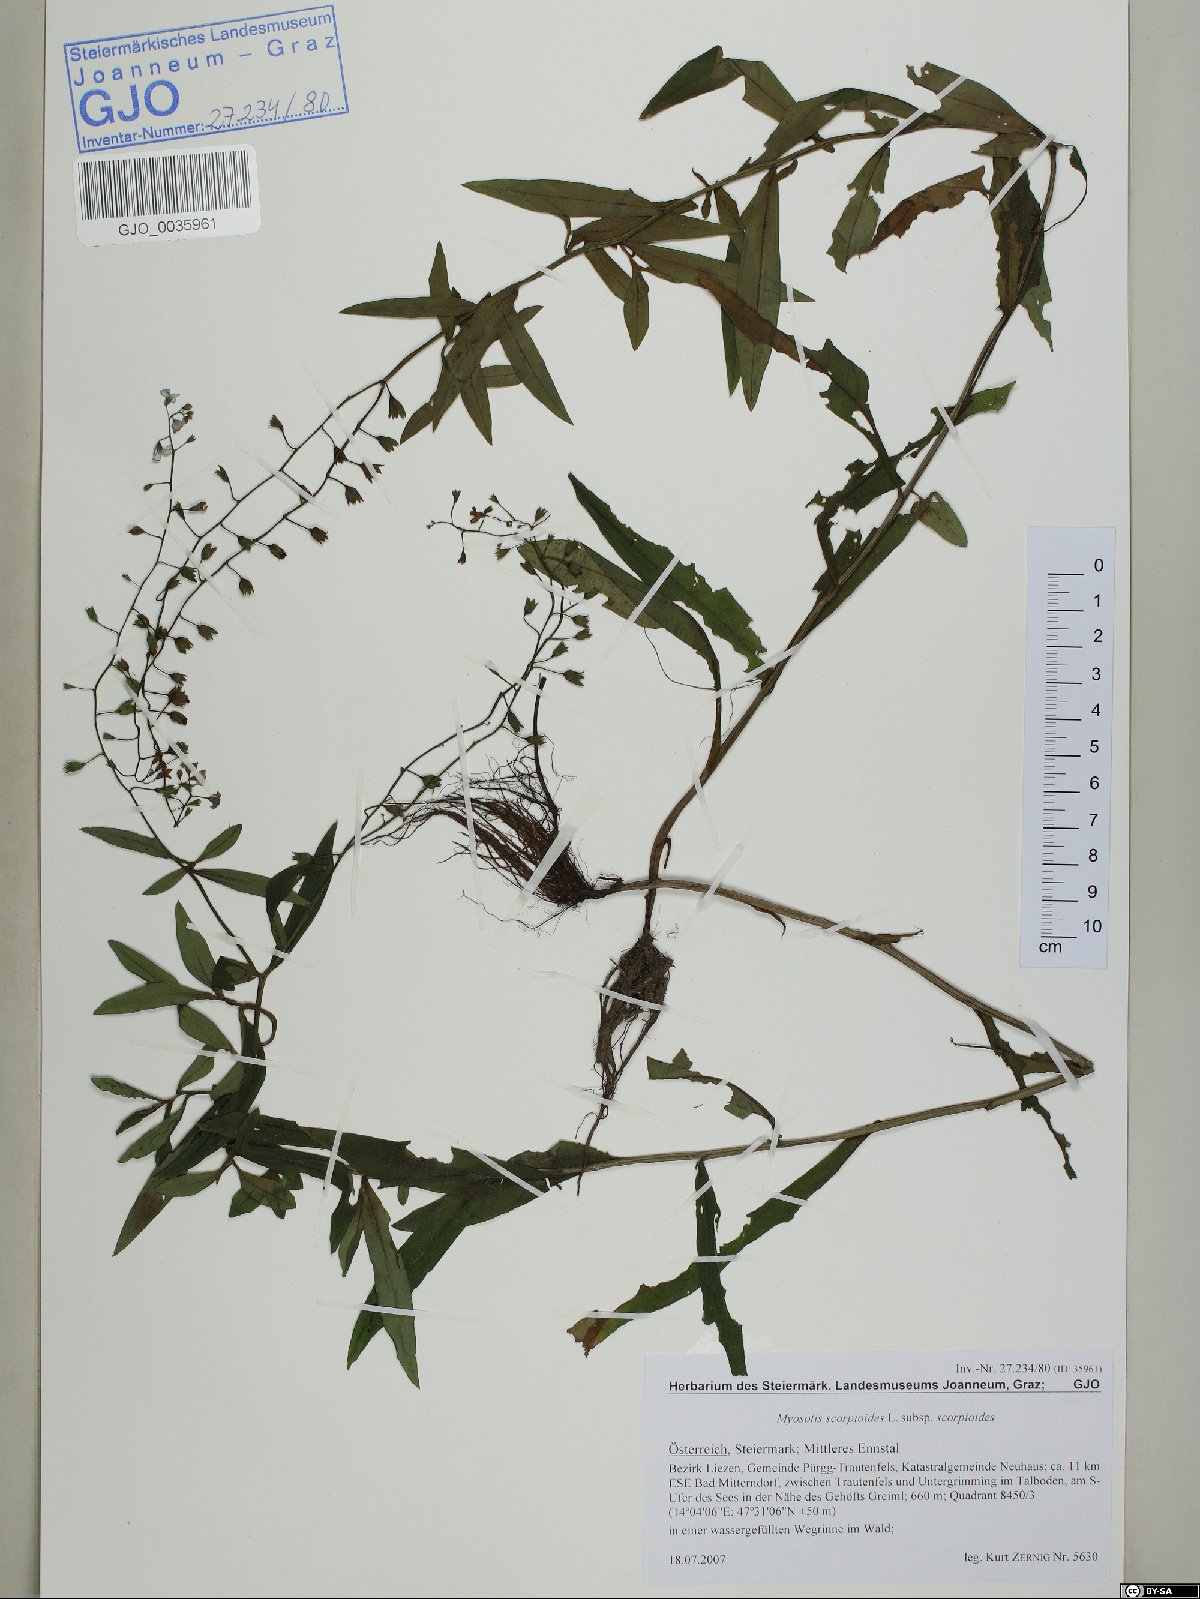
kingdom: Plantae
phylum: Tracheophyta
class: Magnoliopsida
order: Boraginales
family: Boraginaceae
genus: Myosotis
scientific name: Myosotis scorpioides
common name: Water forget-me-not
